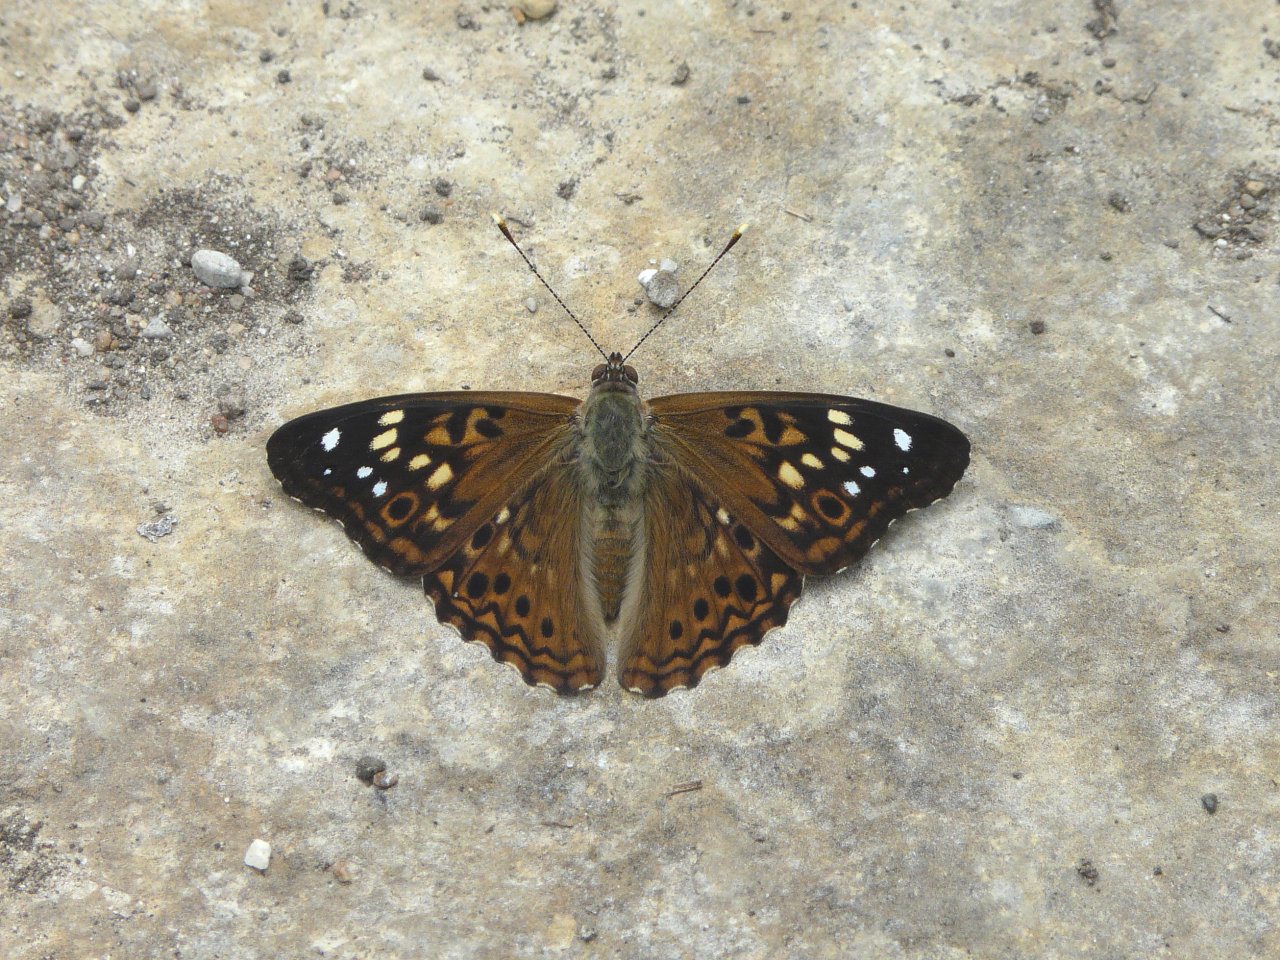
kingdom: Animalia
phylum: Arthropoda
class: Insecta
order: Lepidoptera
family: Nymphalidae
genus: Asterocampa
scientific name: Asterocampa celtis
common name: Hackberry Emperor
